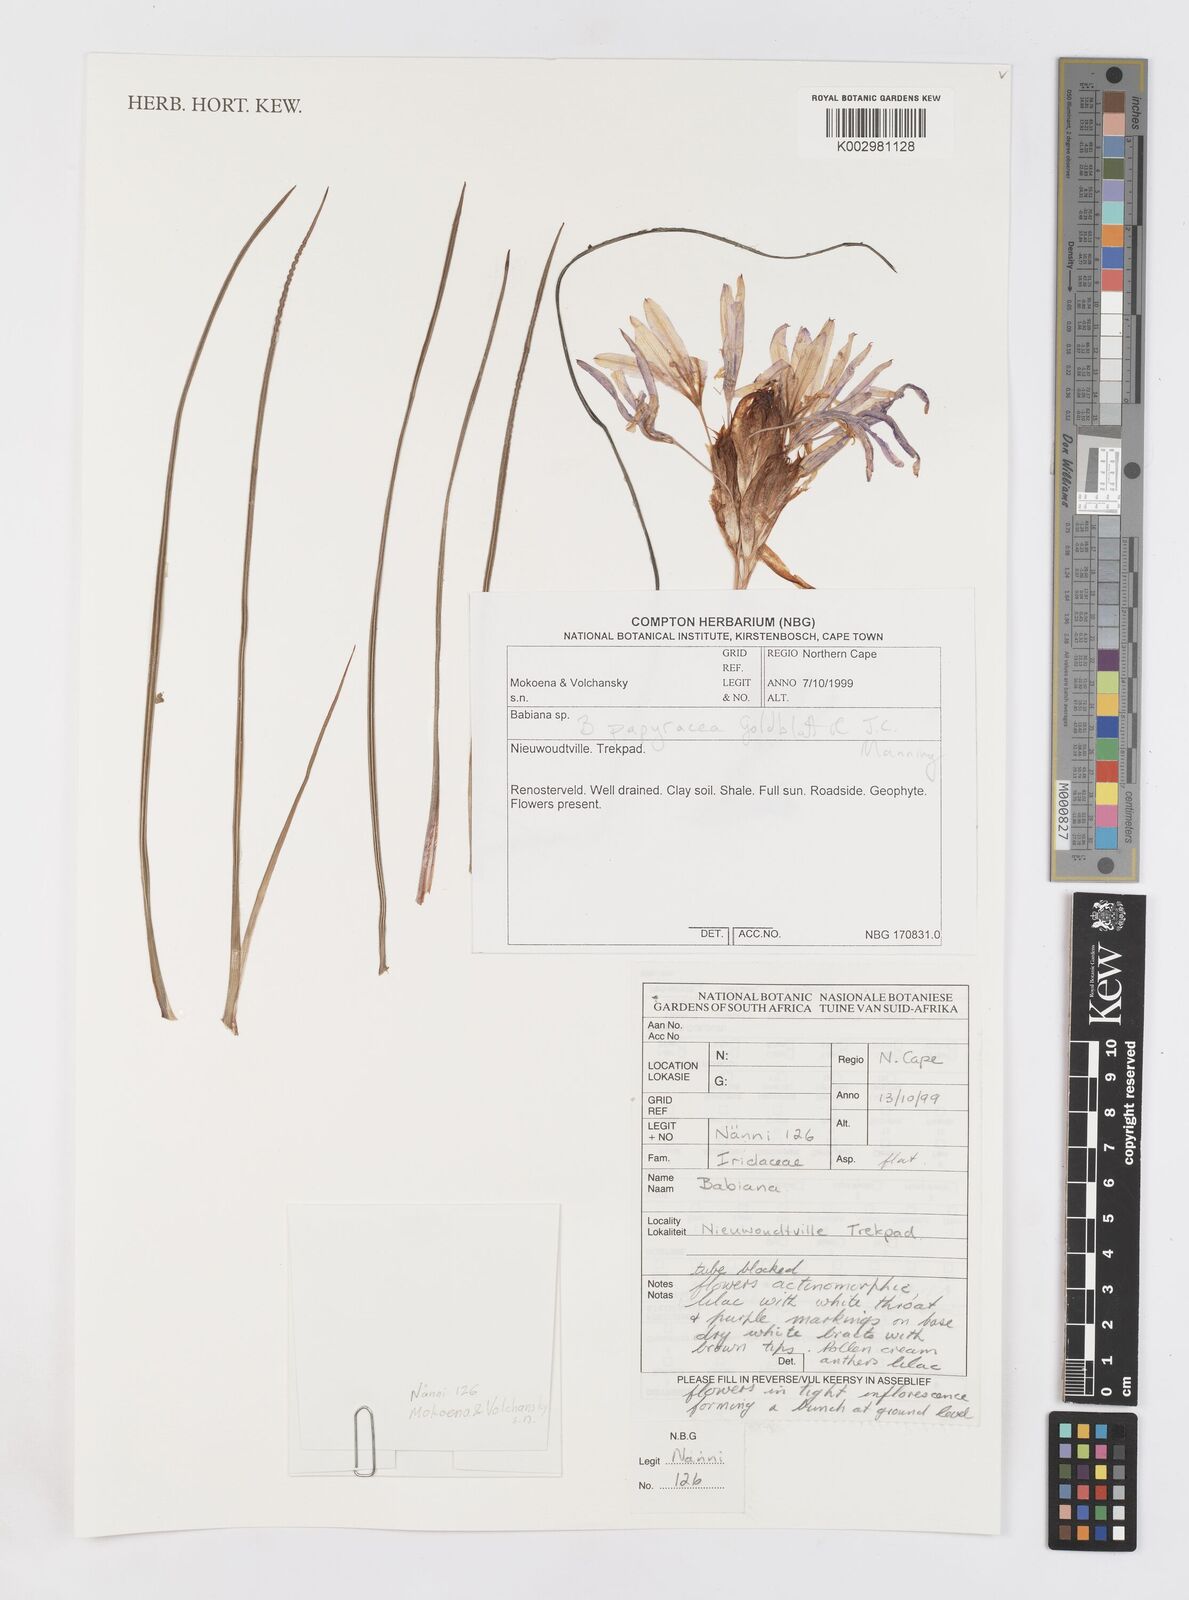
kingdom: Plantae
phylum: Tracheophyta
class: Liliopsida
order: Asparagales
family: Iridaceae
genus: Babiana
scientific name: Babiana papyracea
